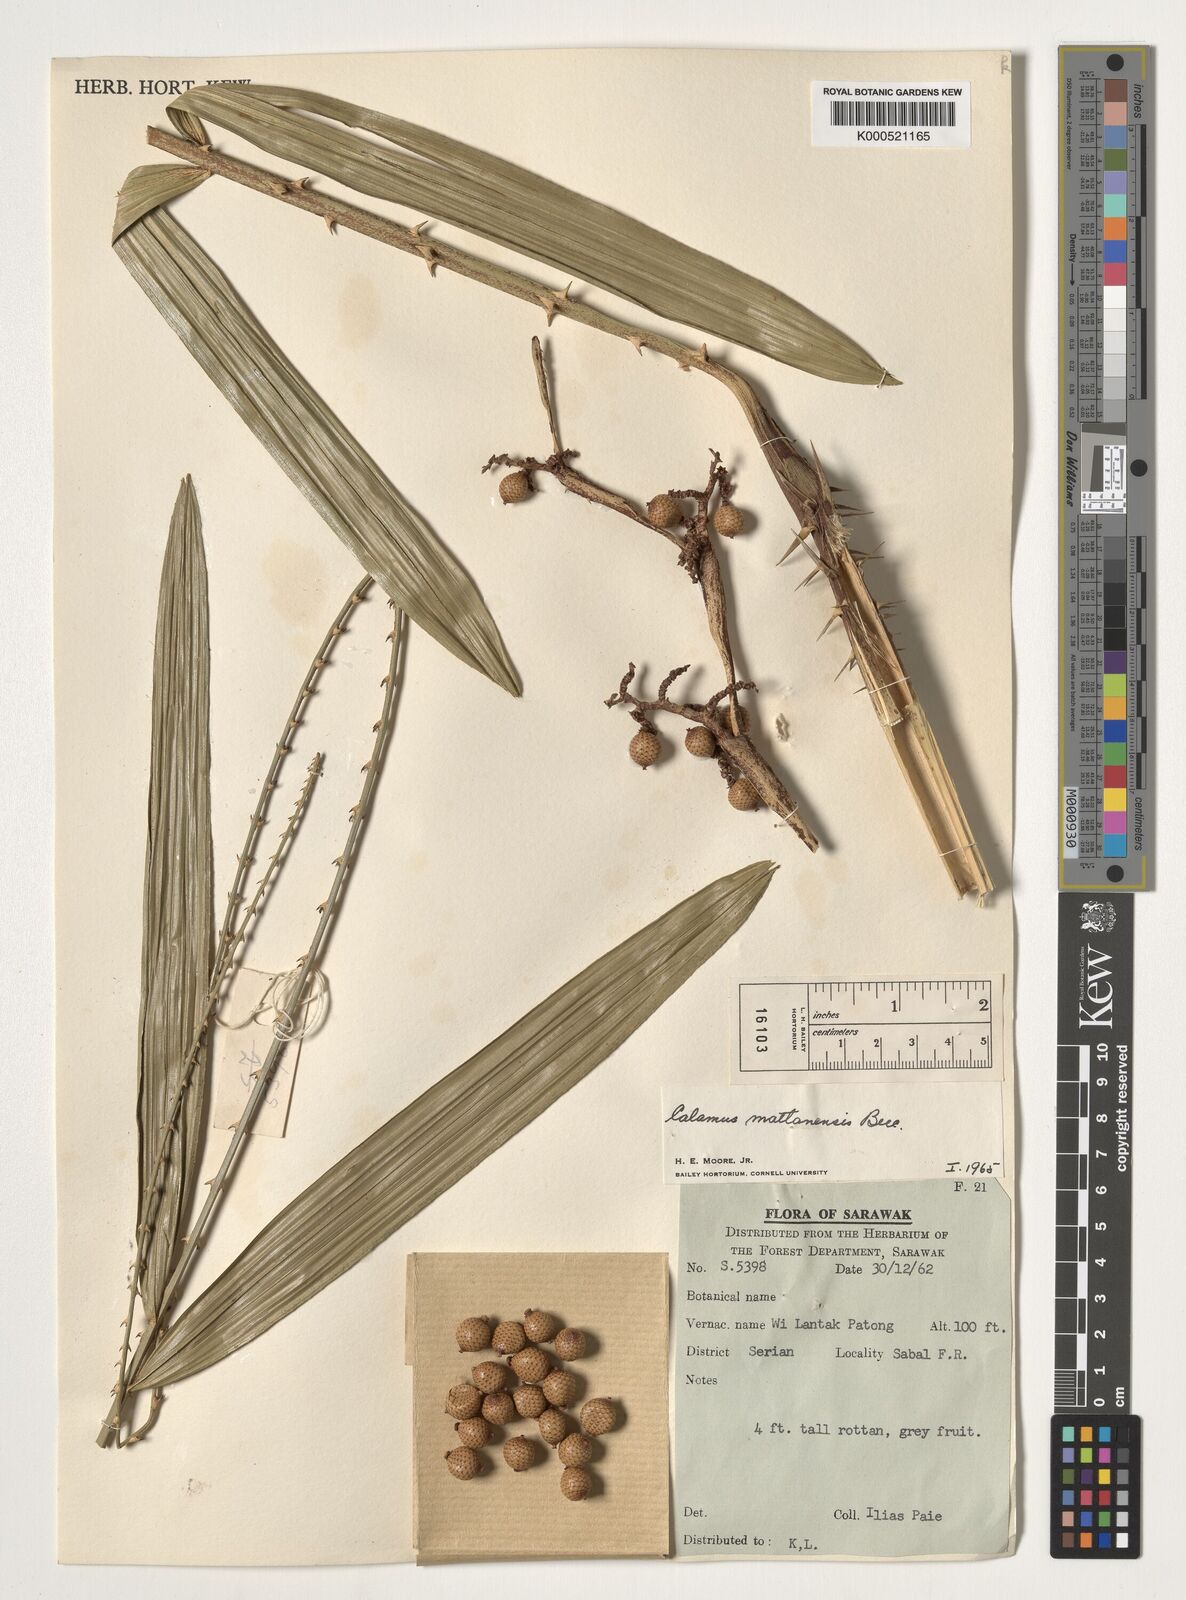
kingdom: Plantae
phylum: Tracheophyta
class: Liliopsida
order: Arecales
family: Arecaceae
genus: Calamus
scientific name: Calamus
